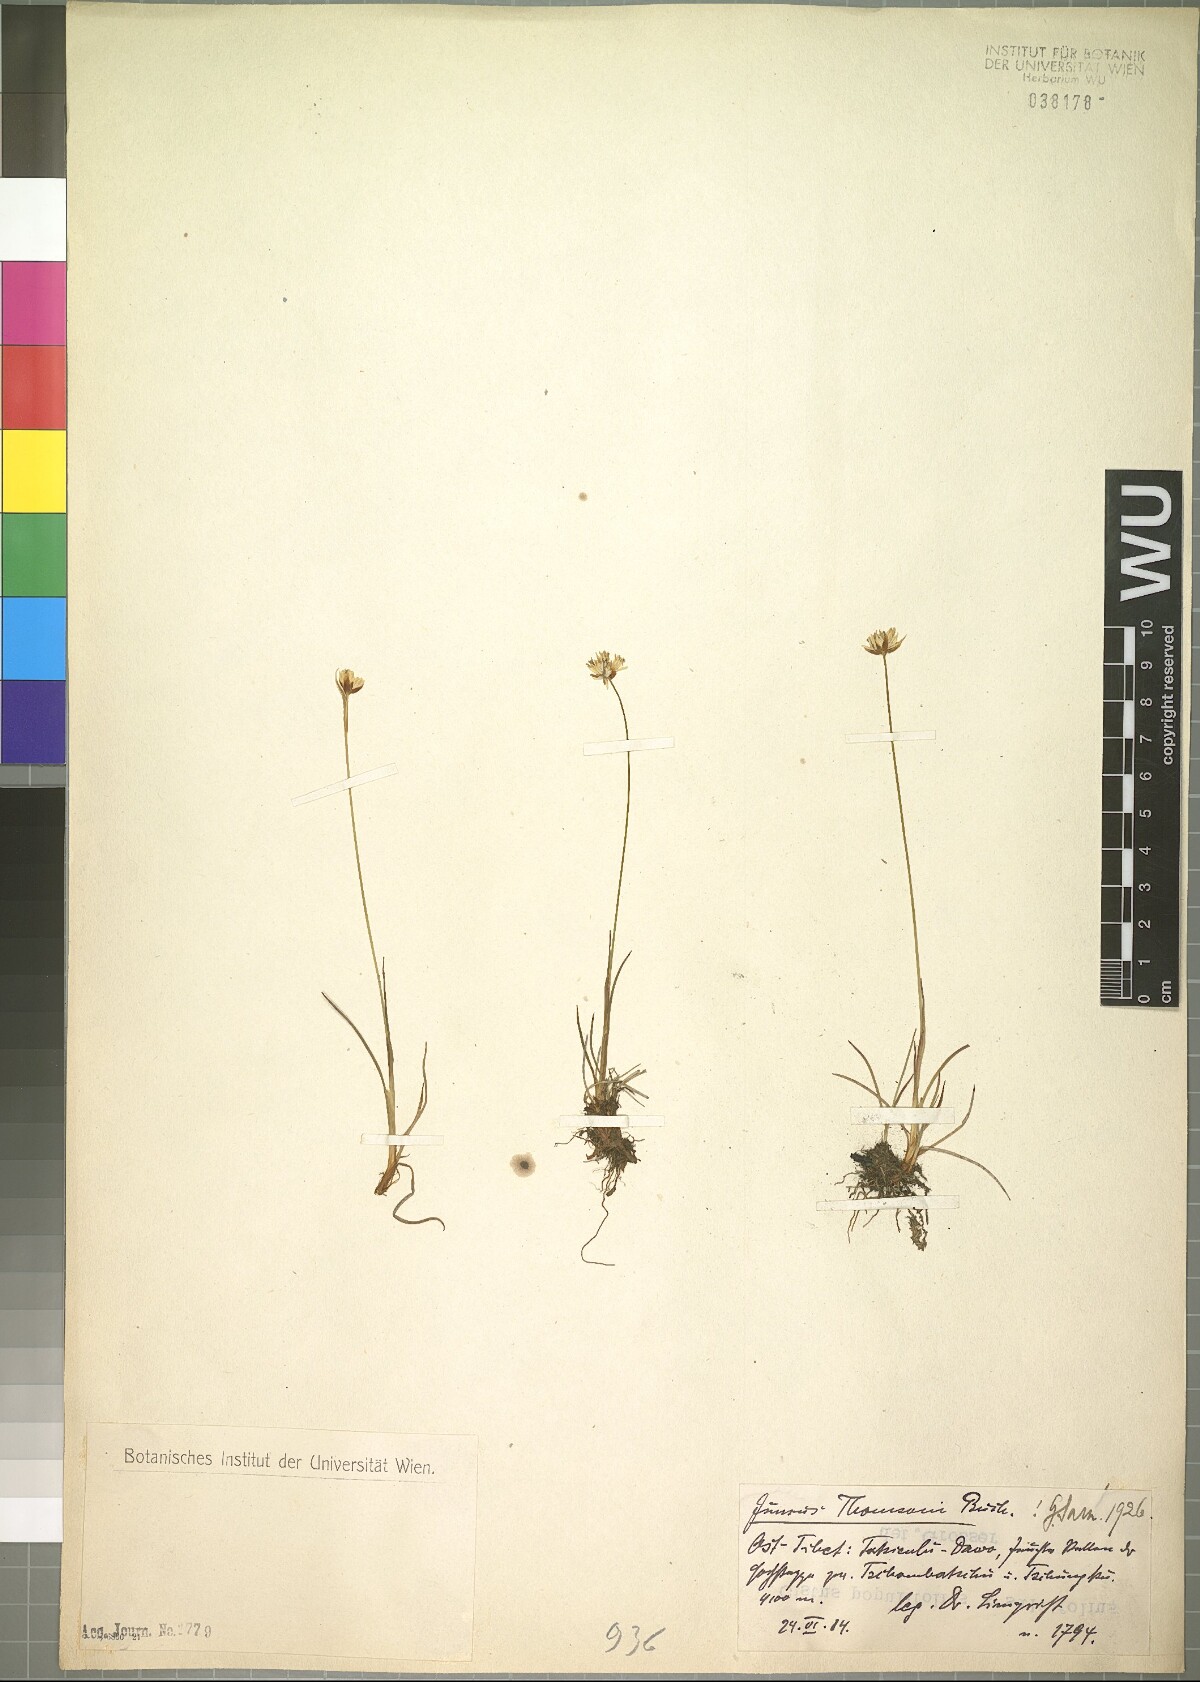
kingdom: Plantae
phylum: Tracheophyta
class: Liliopsida
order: Poales
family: Juncaceae
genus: Juncus
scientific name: Juncus thomsonii
